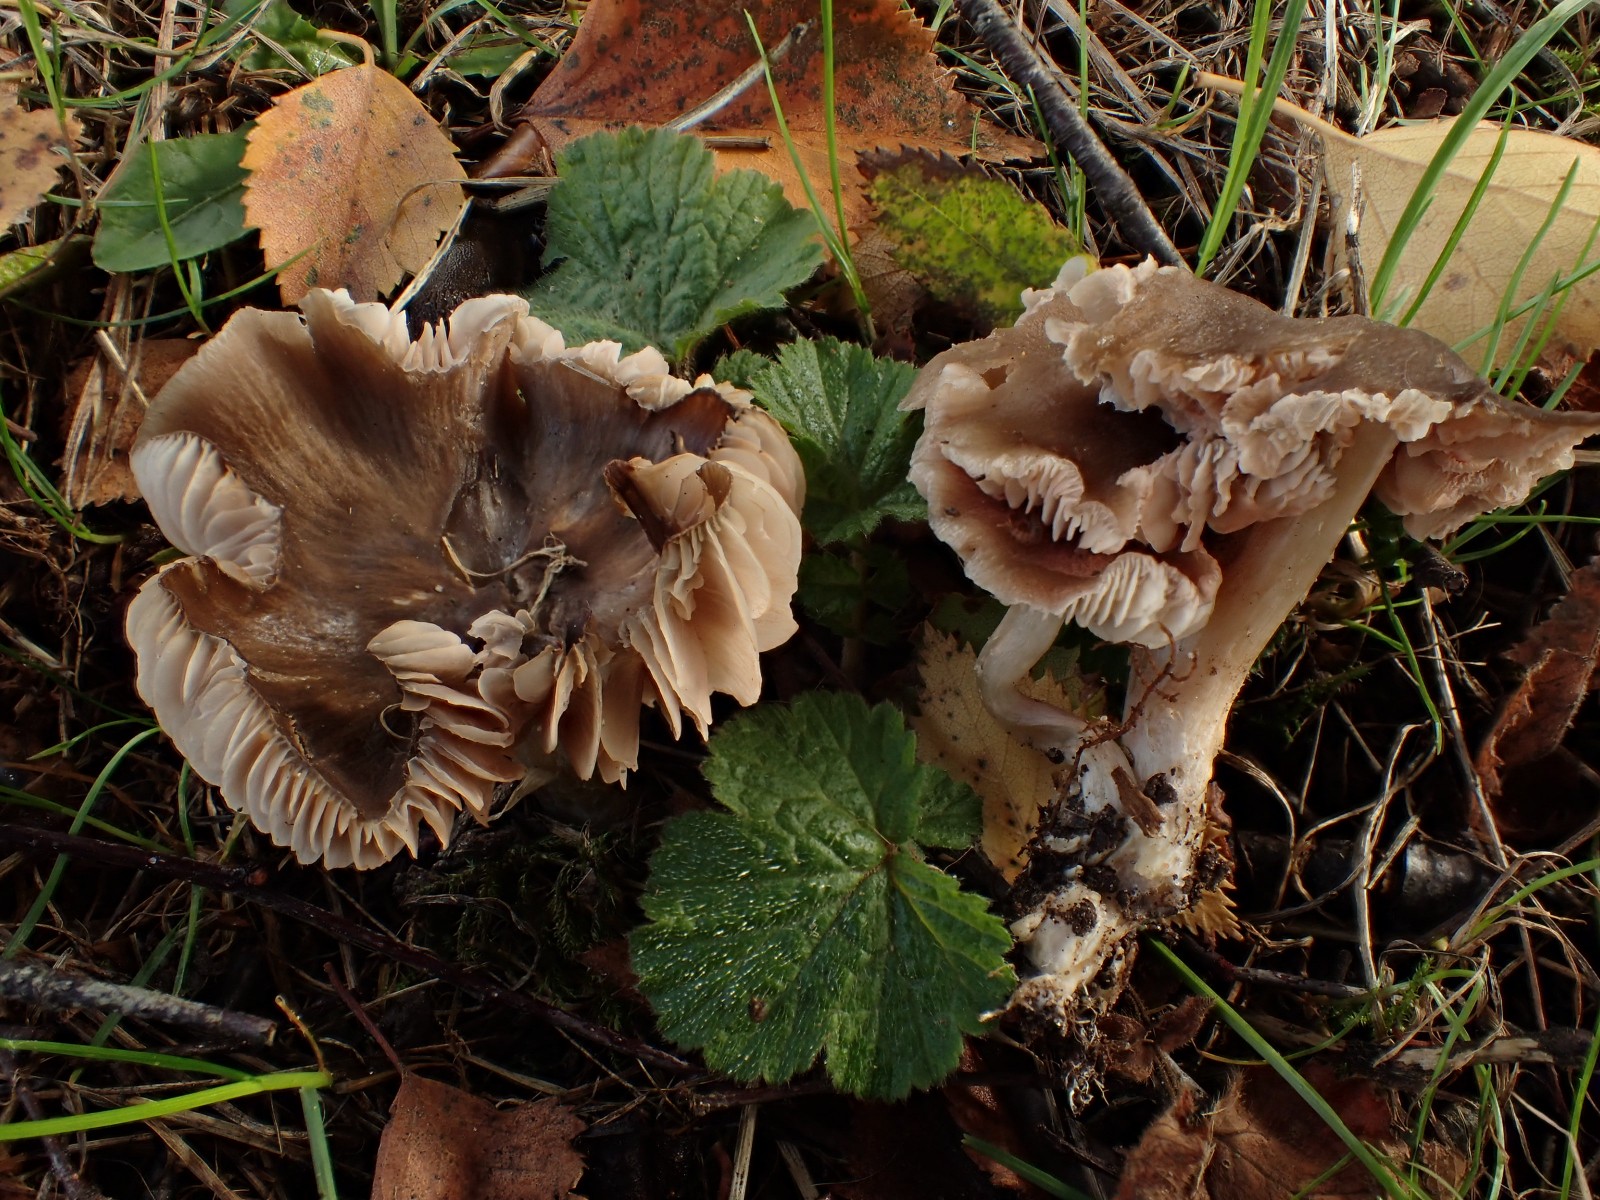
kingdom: Fungi
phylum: Basidiomycota
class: Agaricomycetes
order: Agaricales
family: Entolomataceae
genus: Entoloma
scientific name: Entoloma
